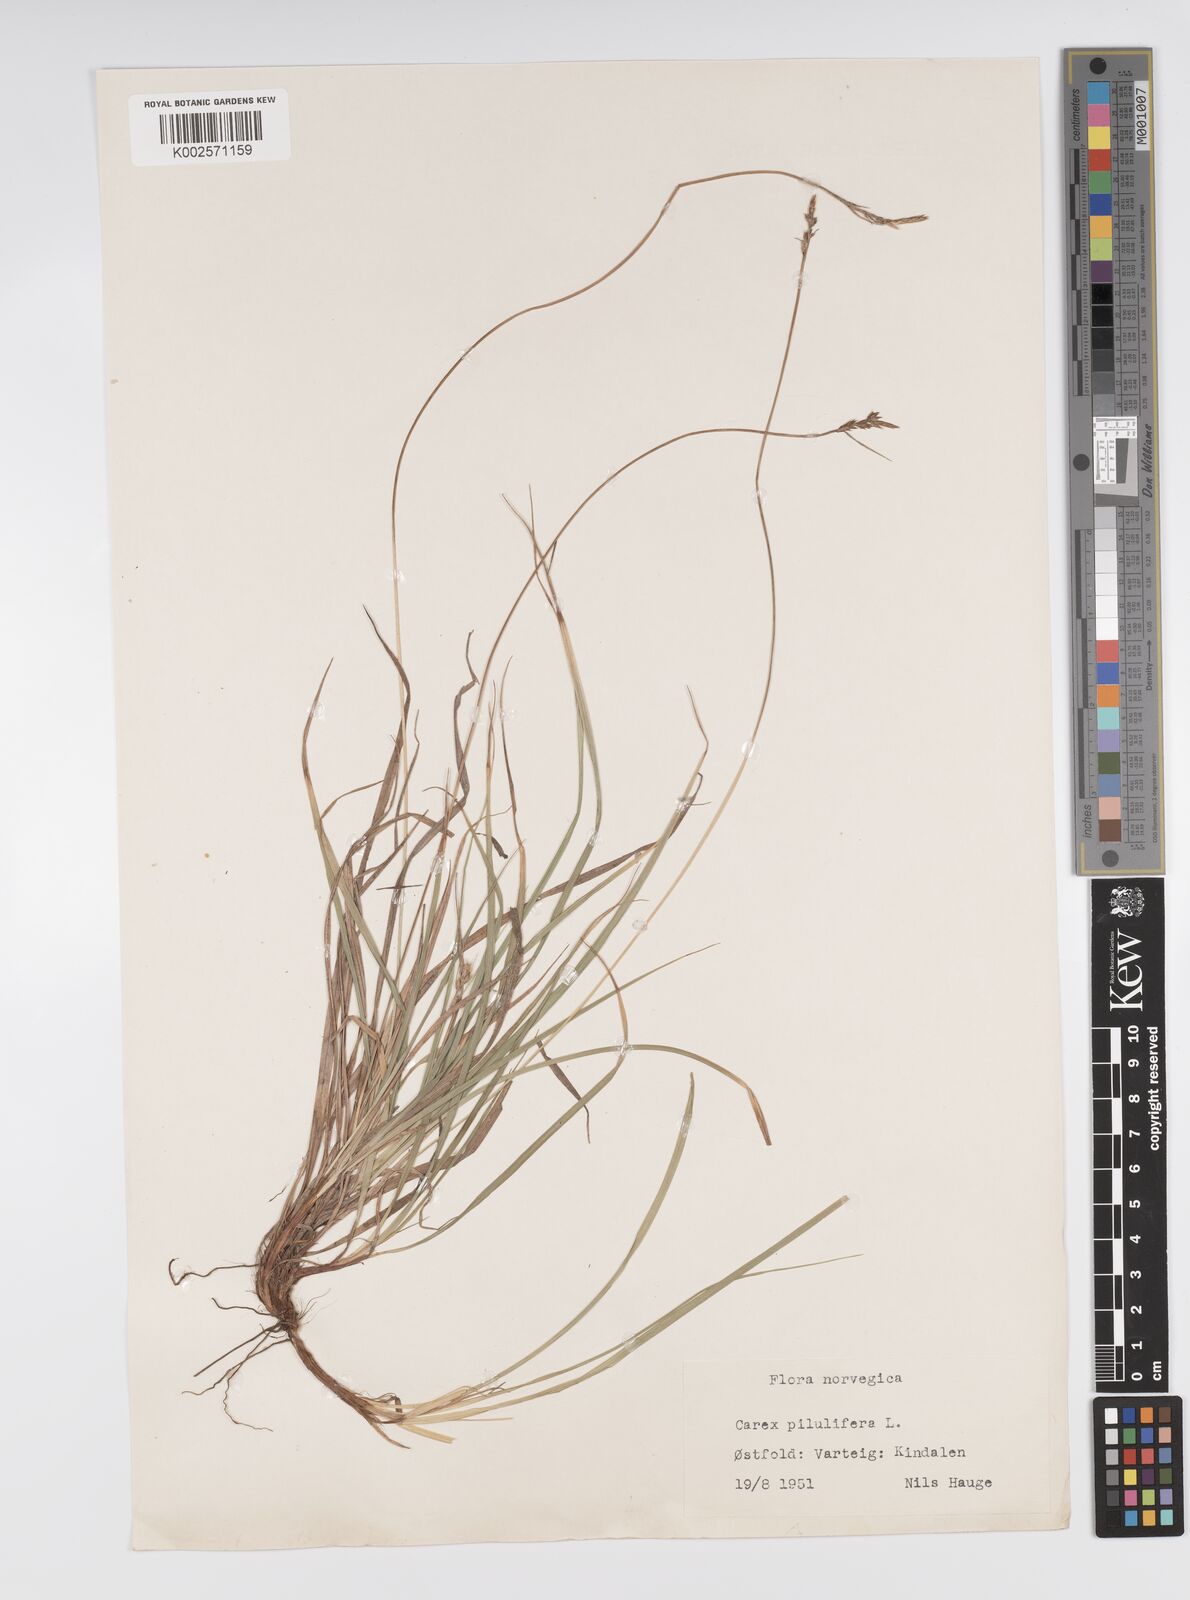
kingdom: Plantae
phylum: Tracheophyta
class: Liliopsida
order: Poales
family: Cyperaceae
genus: Carex
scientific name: Carex pilulifera
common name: Pill sedge
